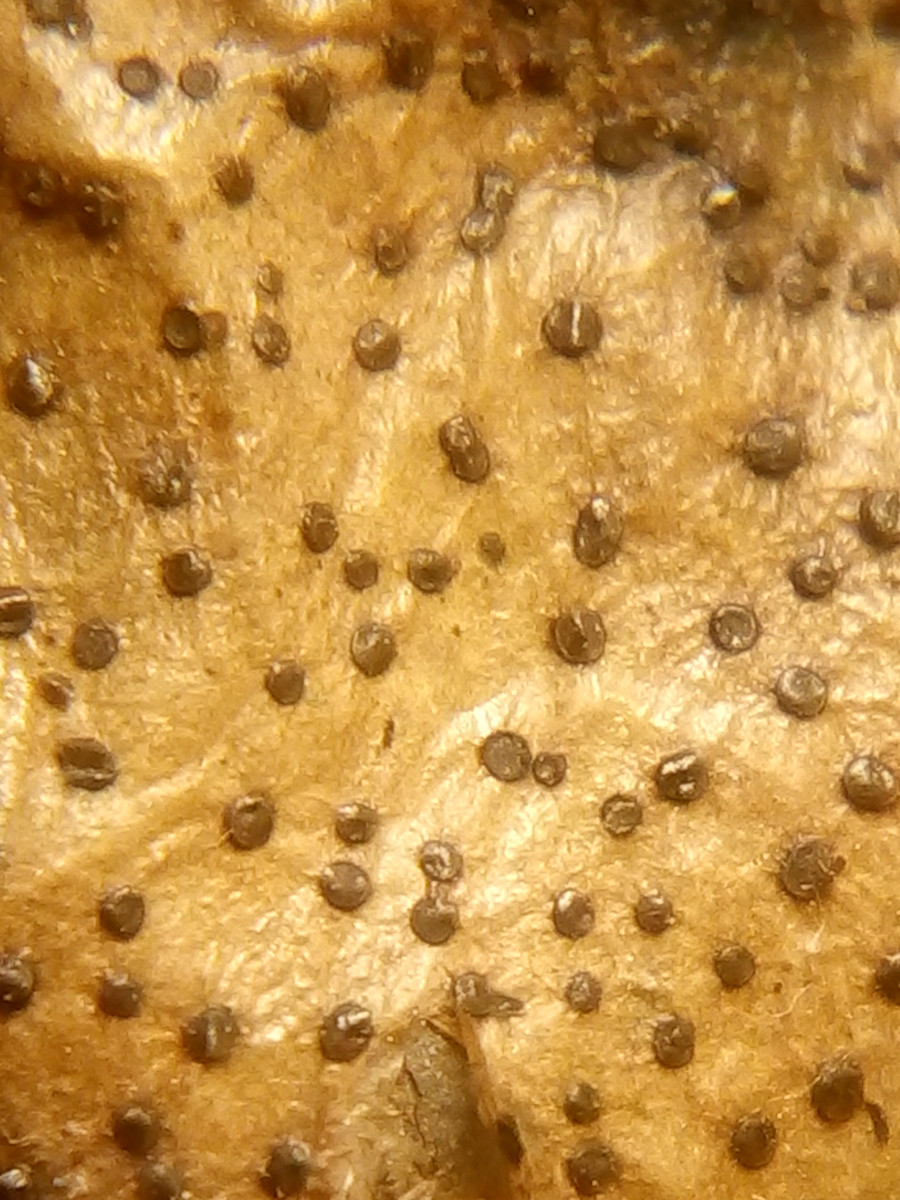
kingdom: Fungi
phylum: Ascomycota
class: Leotiomycetes
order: Helotiales
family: Cenangiaceae
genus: Trochila
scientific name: Trochila ilicina
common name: kristtorn-lågskive
